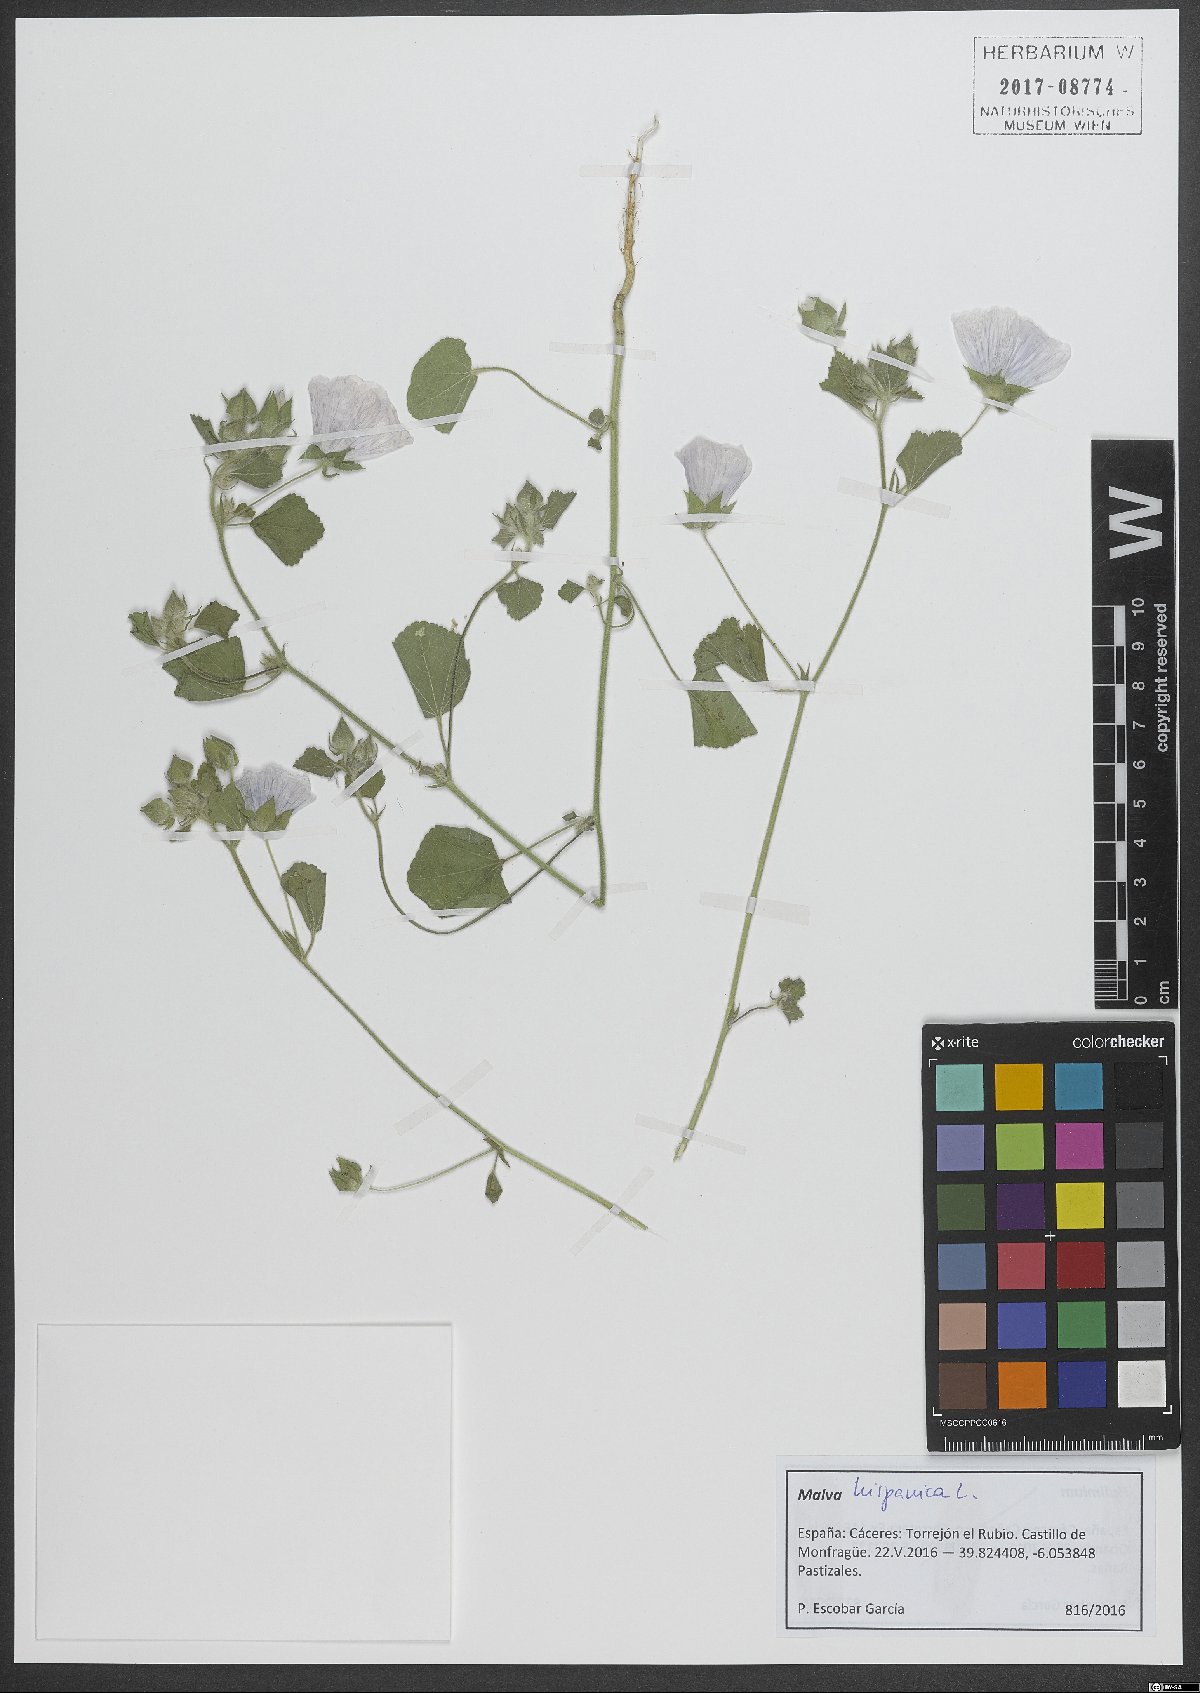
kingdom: Plantae
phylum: Tracheophyta
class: Magnoliopsida
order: Malvales
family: Malvaceae
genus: Malva
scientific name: Malva hispanica
